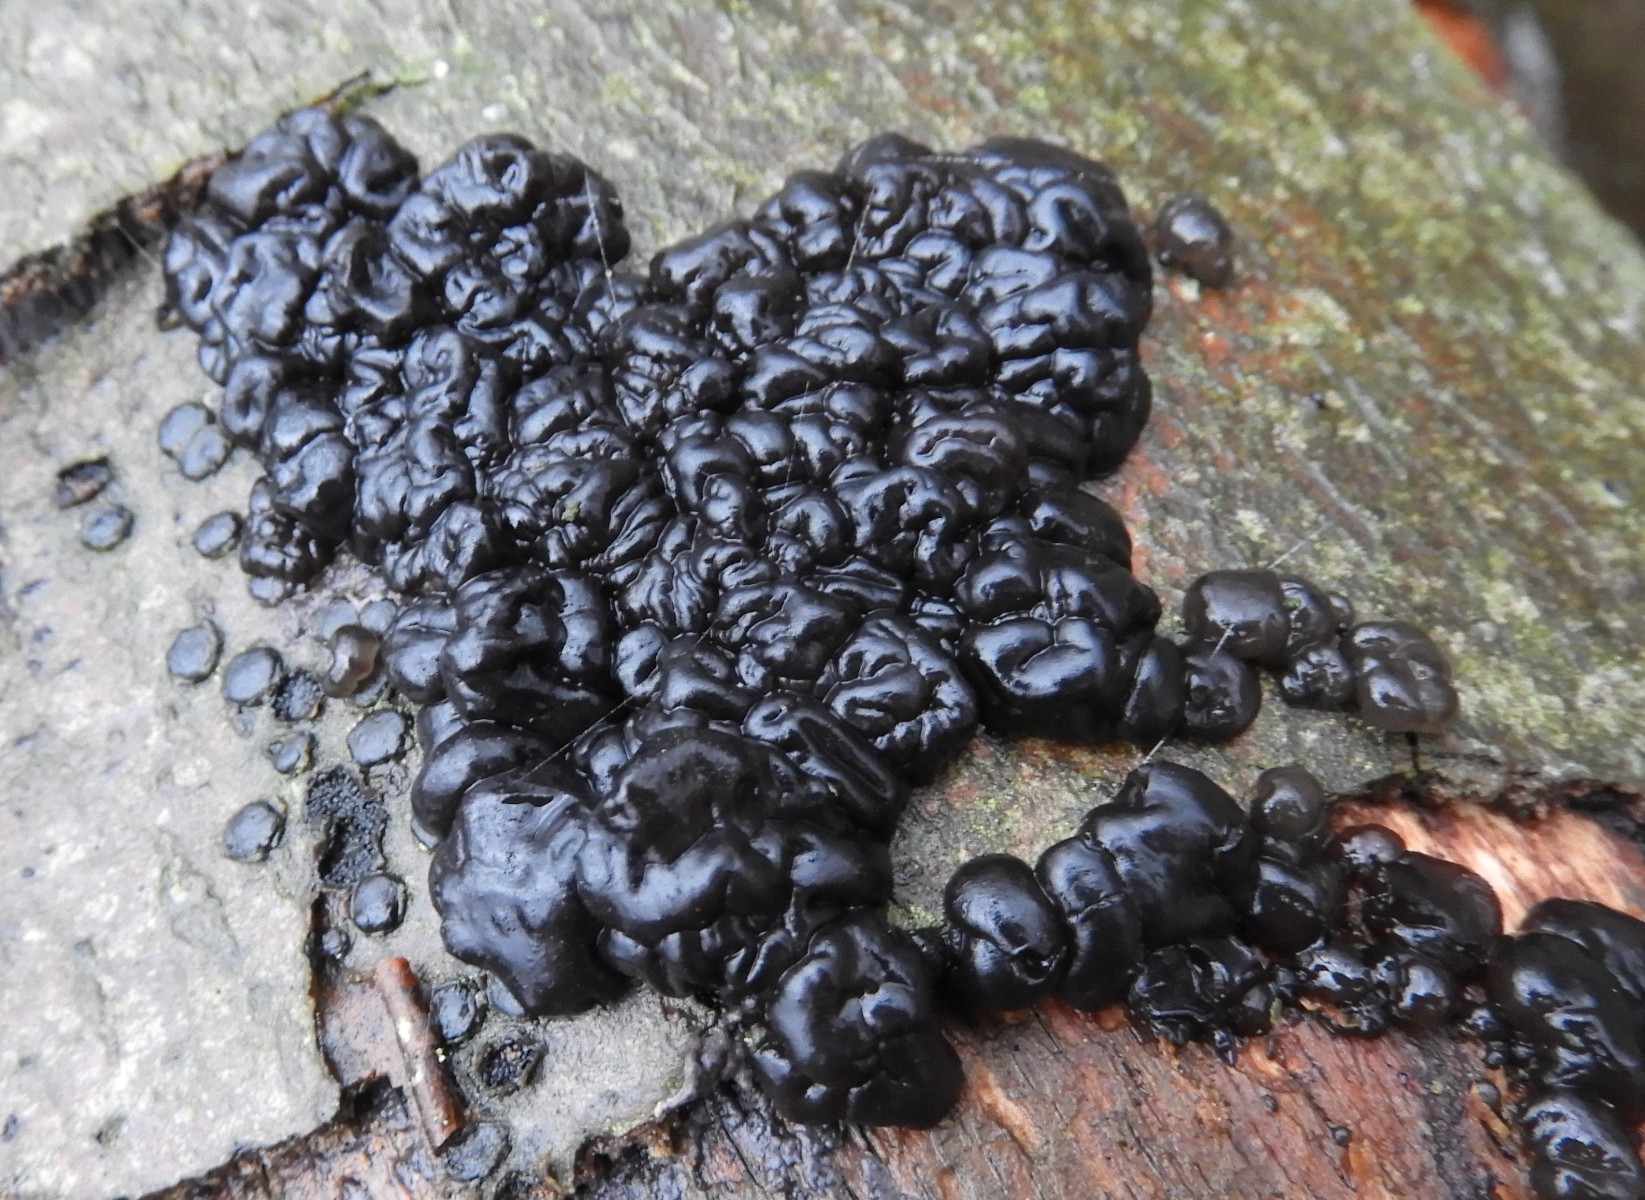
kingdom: Fungi
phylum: Basidiomycota
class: Agaricomycetes
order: Auriculariales
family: Auriculariaceae
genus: Exidia
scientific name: Exidia nigricans
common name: almindelig bævretop
